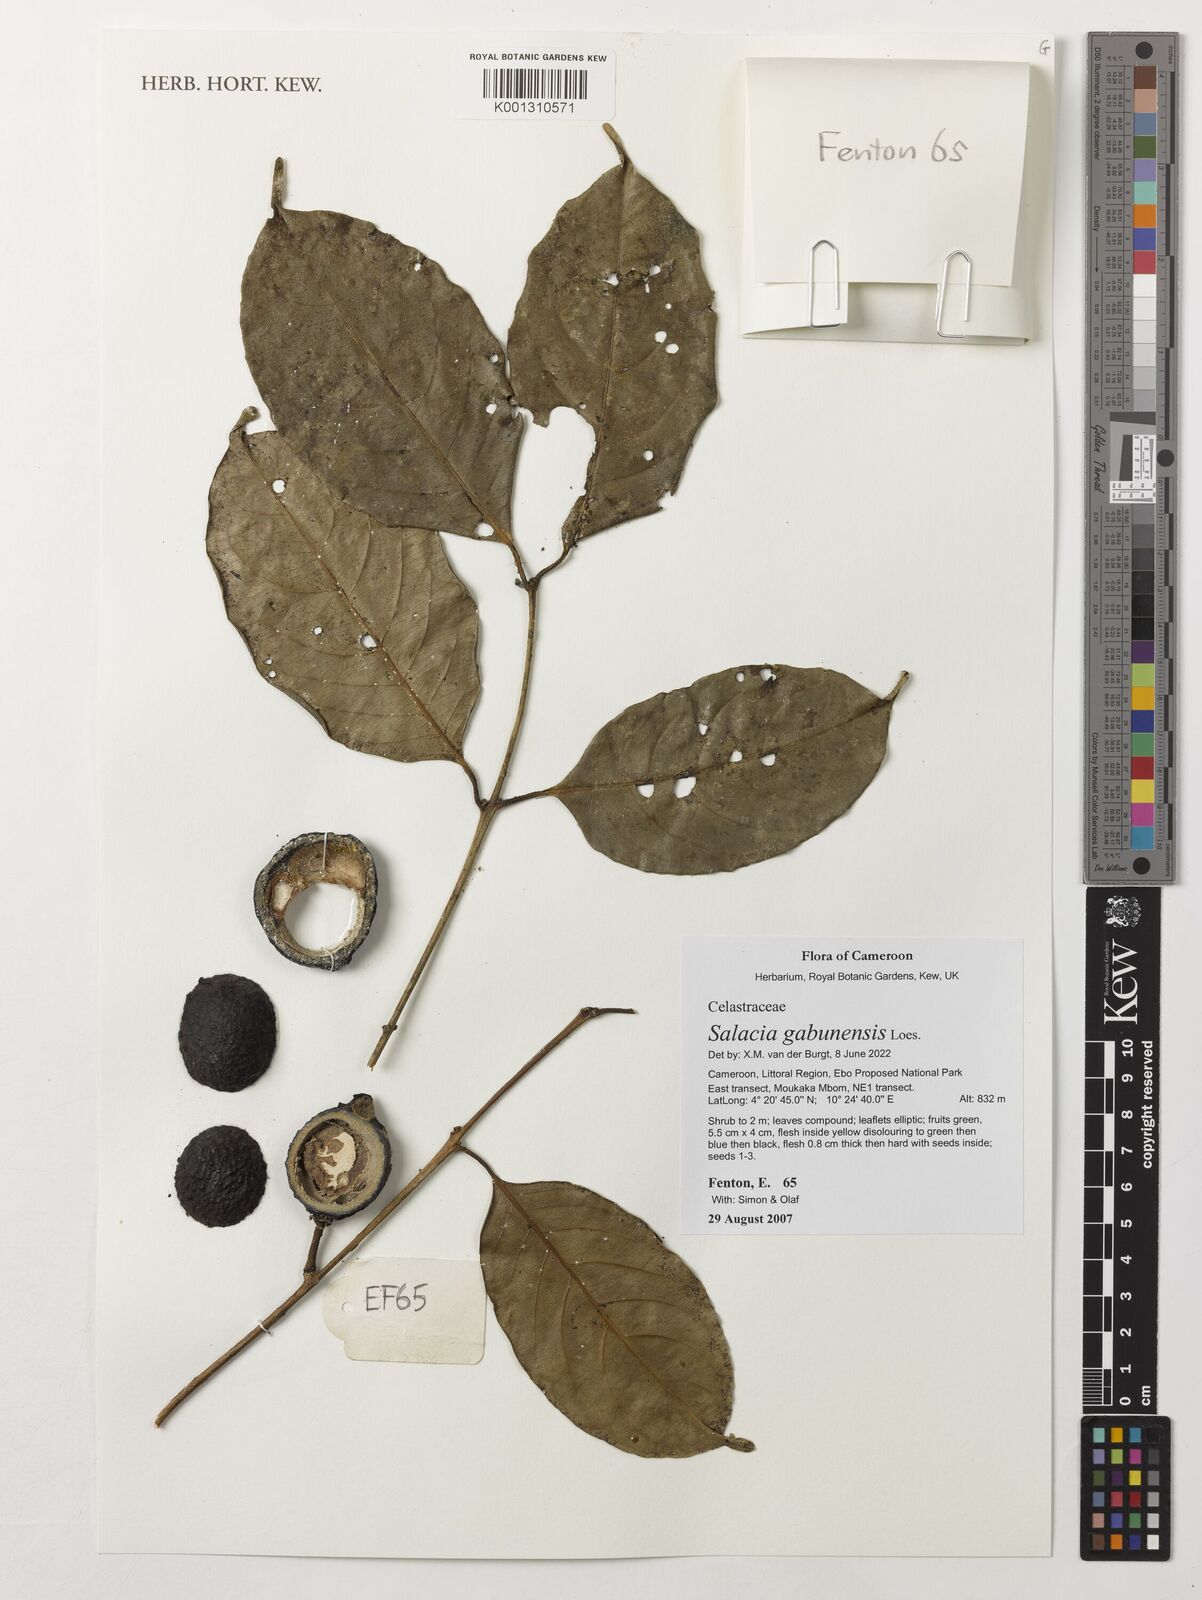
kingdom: Plantae
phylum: Tracheophyta
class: Magnoliopsida
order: Celastrales
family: Celastraceae
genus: Salacia
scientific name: Salacia gabunensis
